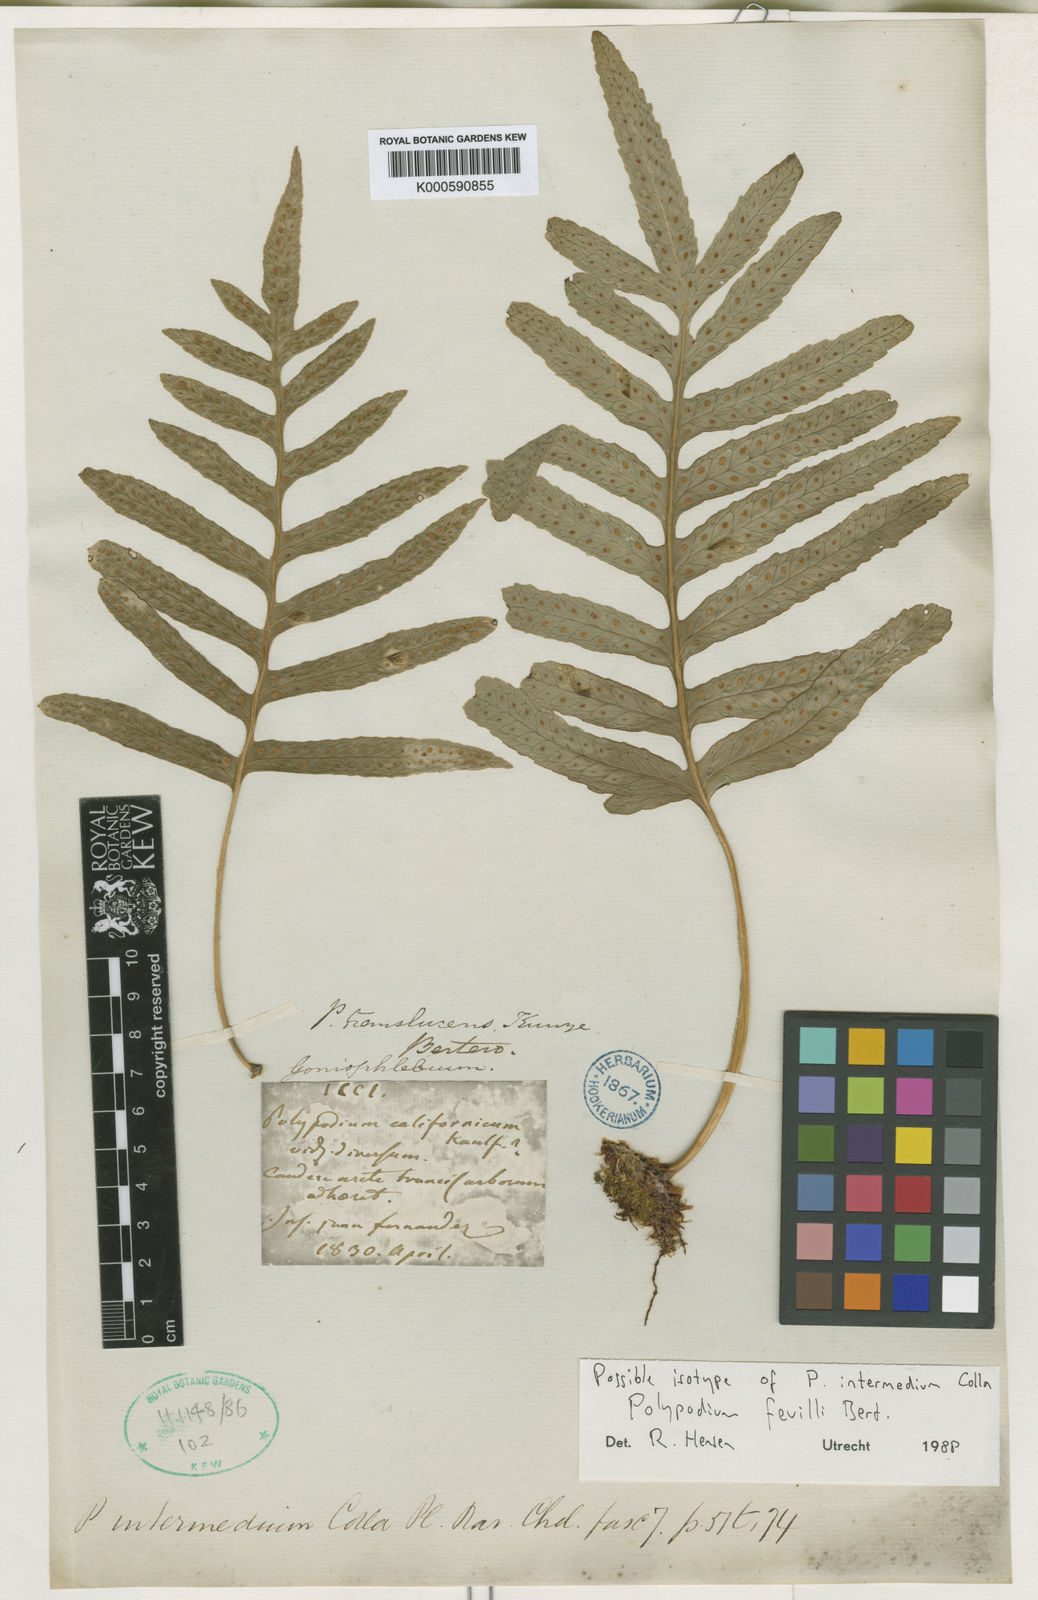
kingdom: Plantae
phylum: Tracheophyta
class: Polypodiopsida
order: Polypodiales
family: Polypodiaceae
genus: Synammia
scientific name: Synammia intermedia
